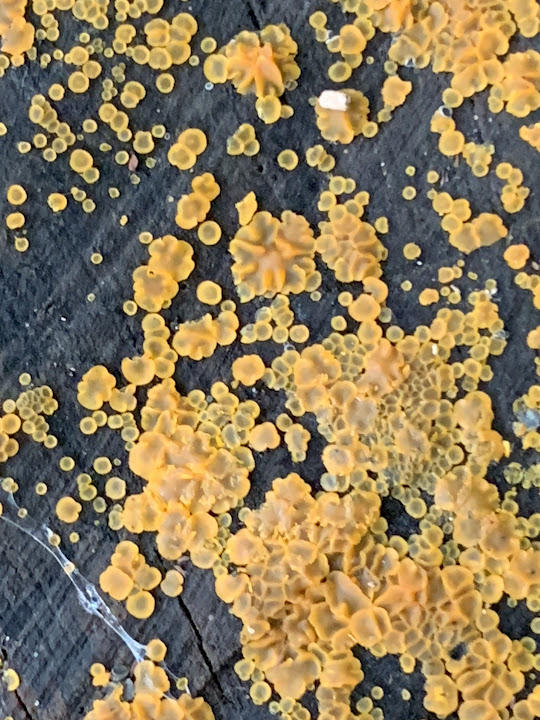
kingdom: Fungi
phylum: Ascomycota
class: Orbiliomycetes
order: Orbiliales
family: Orbiliaceae
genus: Orbilia
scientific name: Orbilia xanthostigma
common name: krumsporet voksskive
